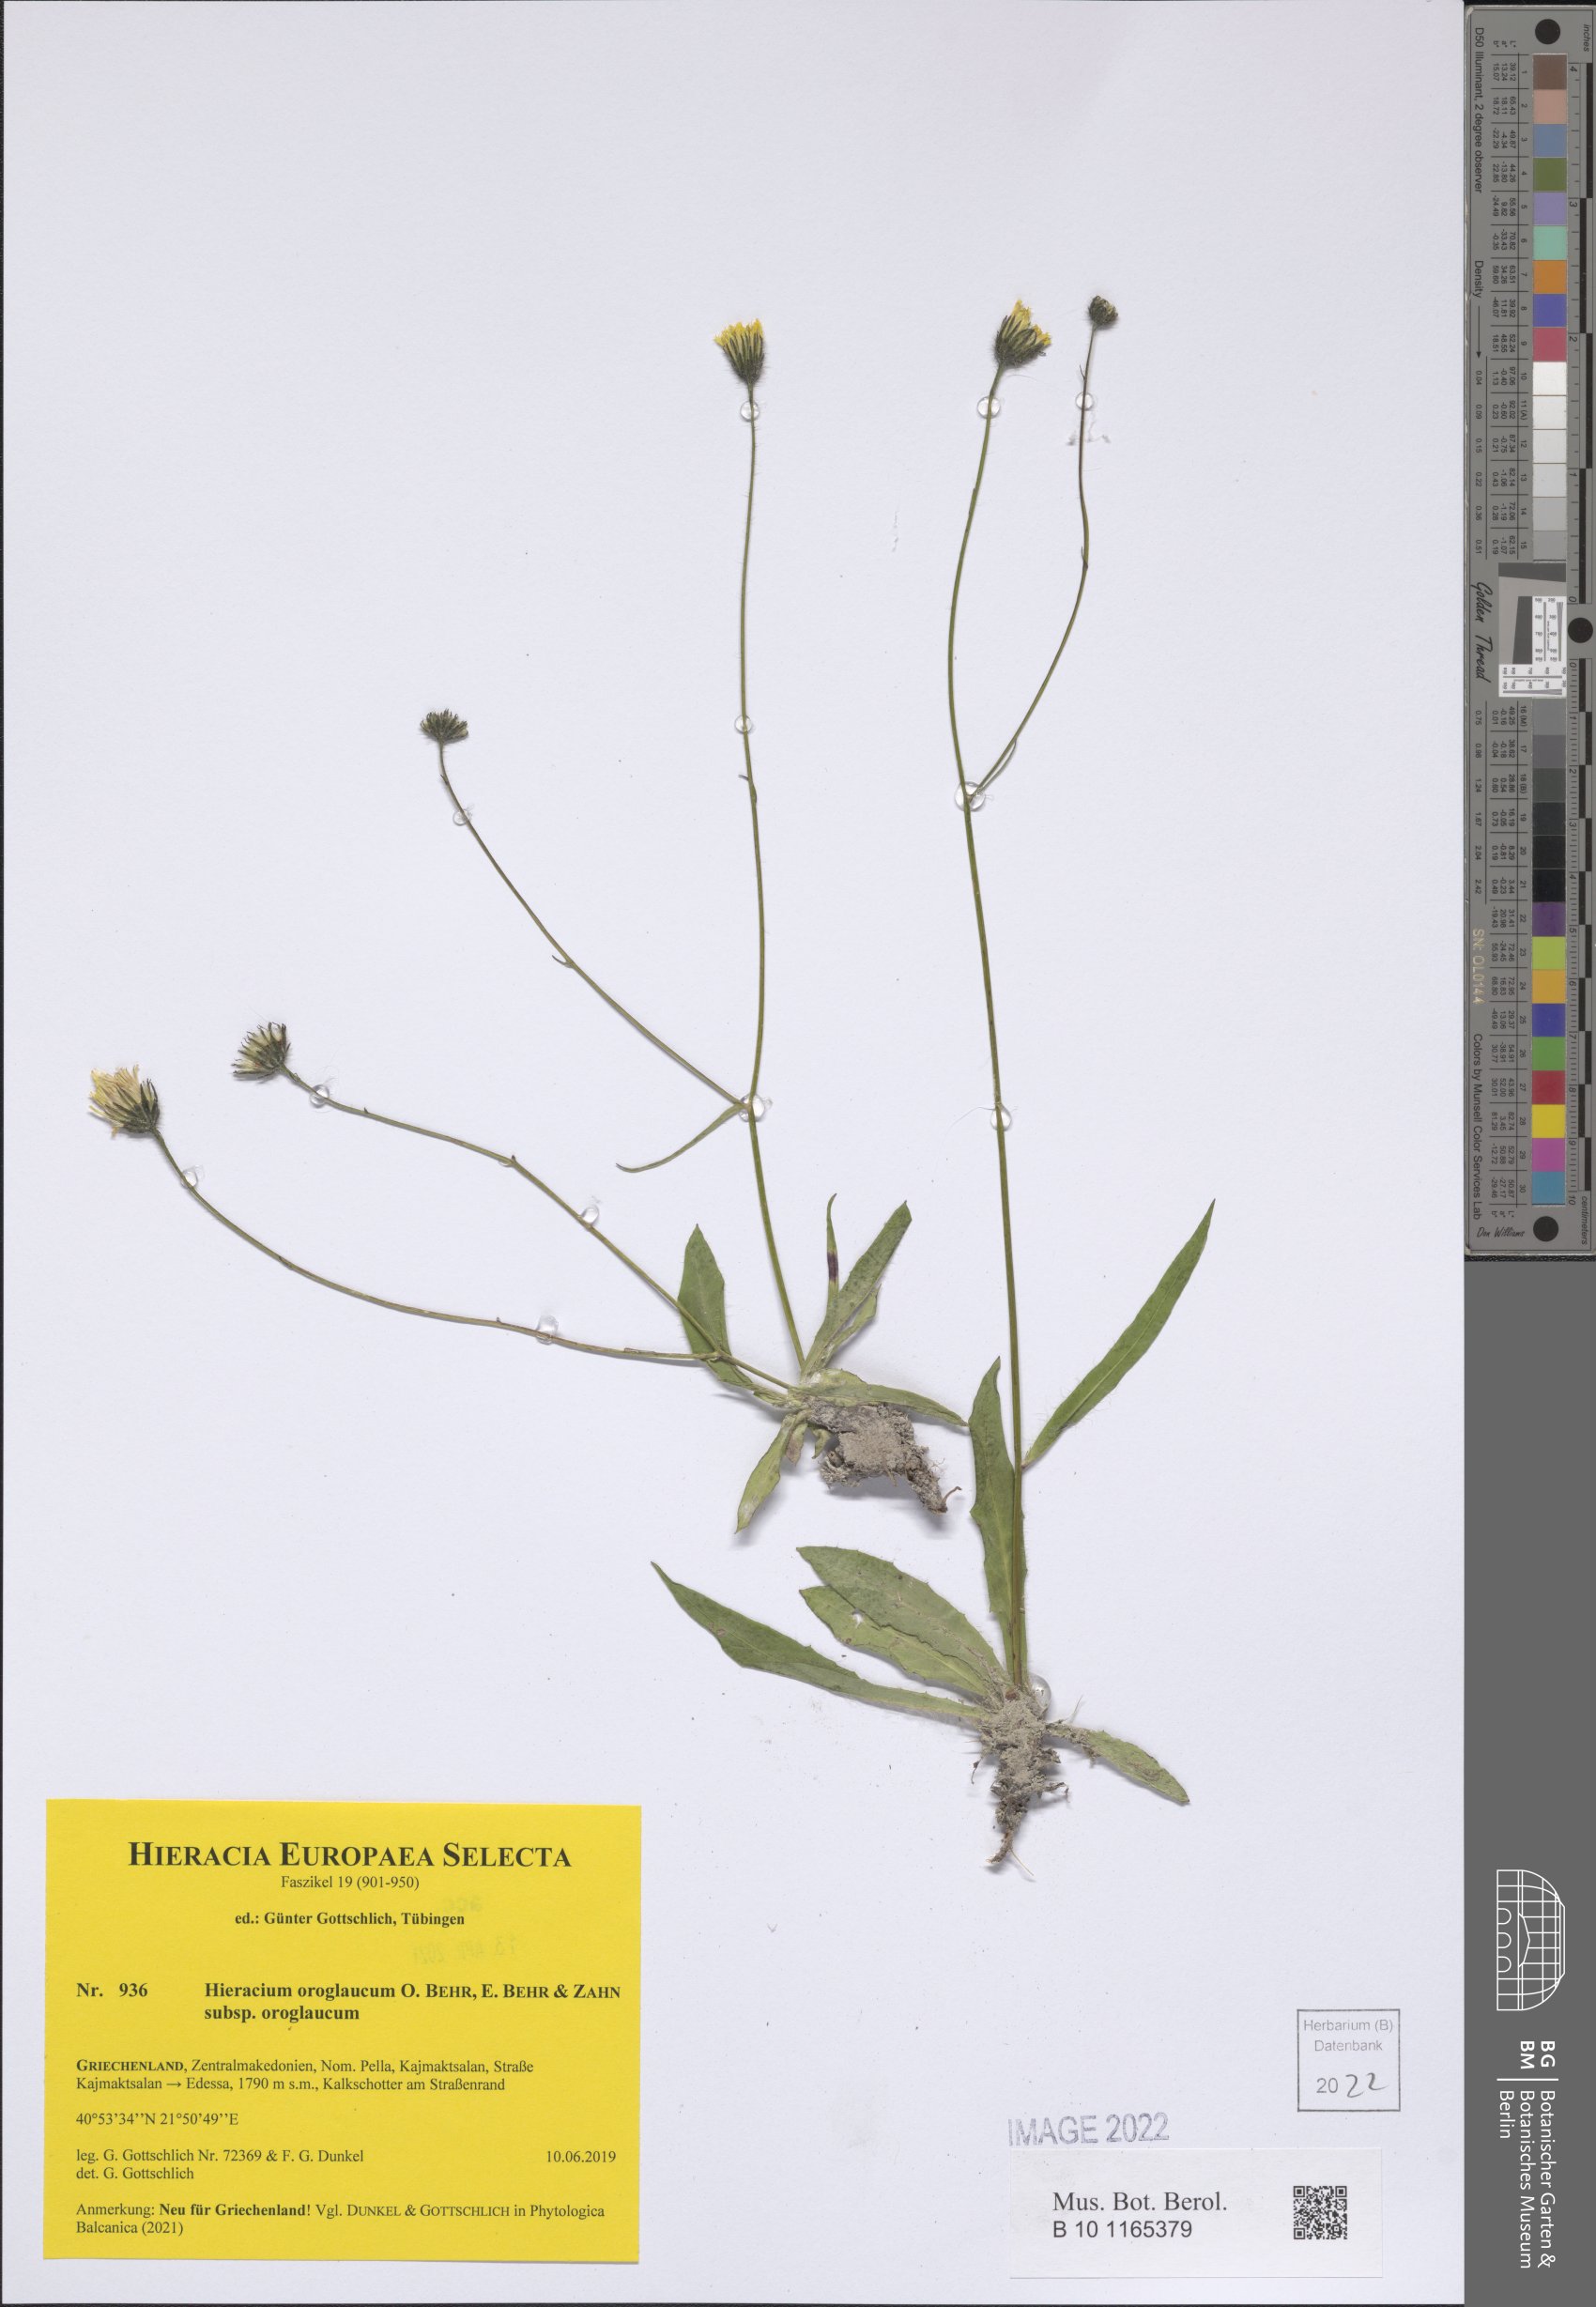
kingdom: Plantae
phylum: Tracheophyta
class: Magnoliopsida
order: Asterales
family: Asteraceae
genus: Hieracium
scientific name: Hieracium oroglaucum
